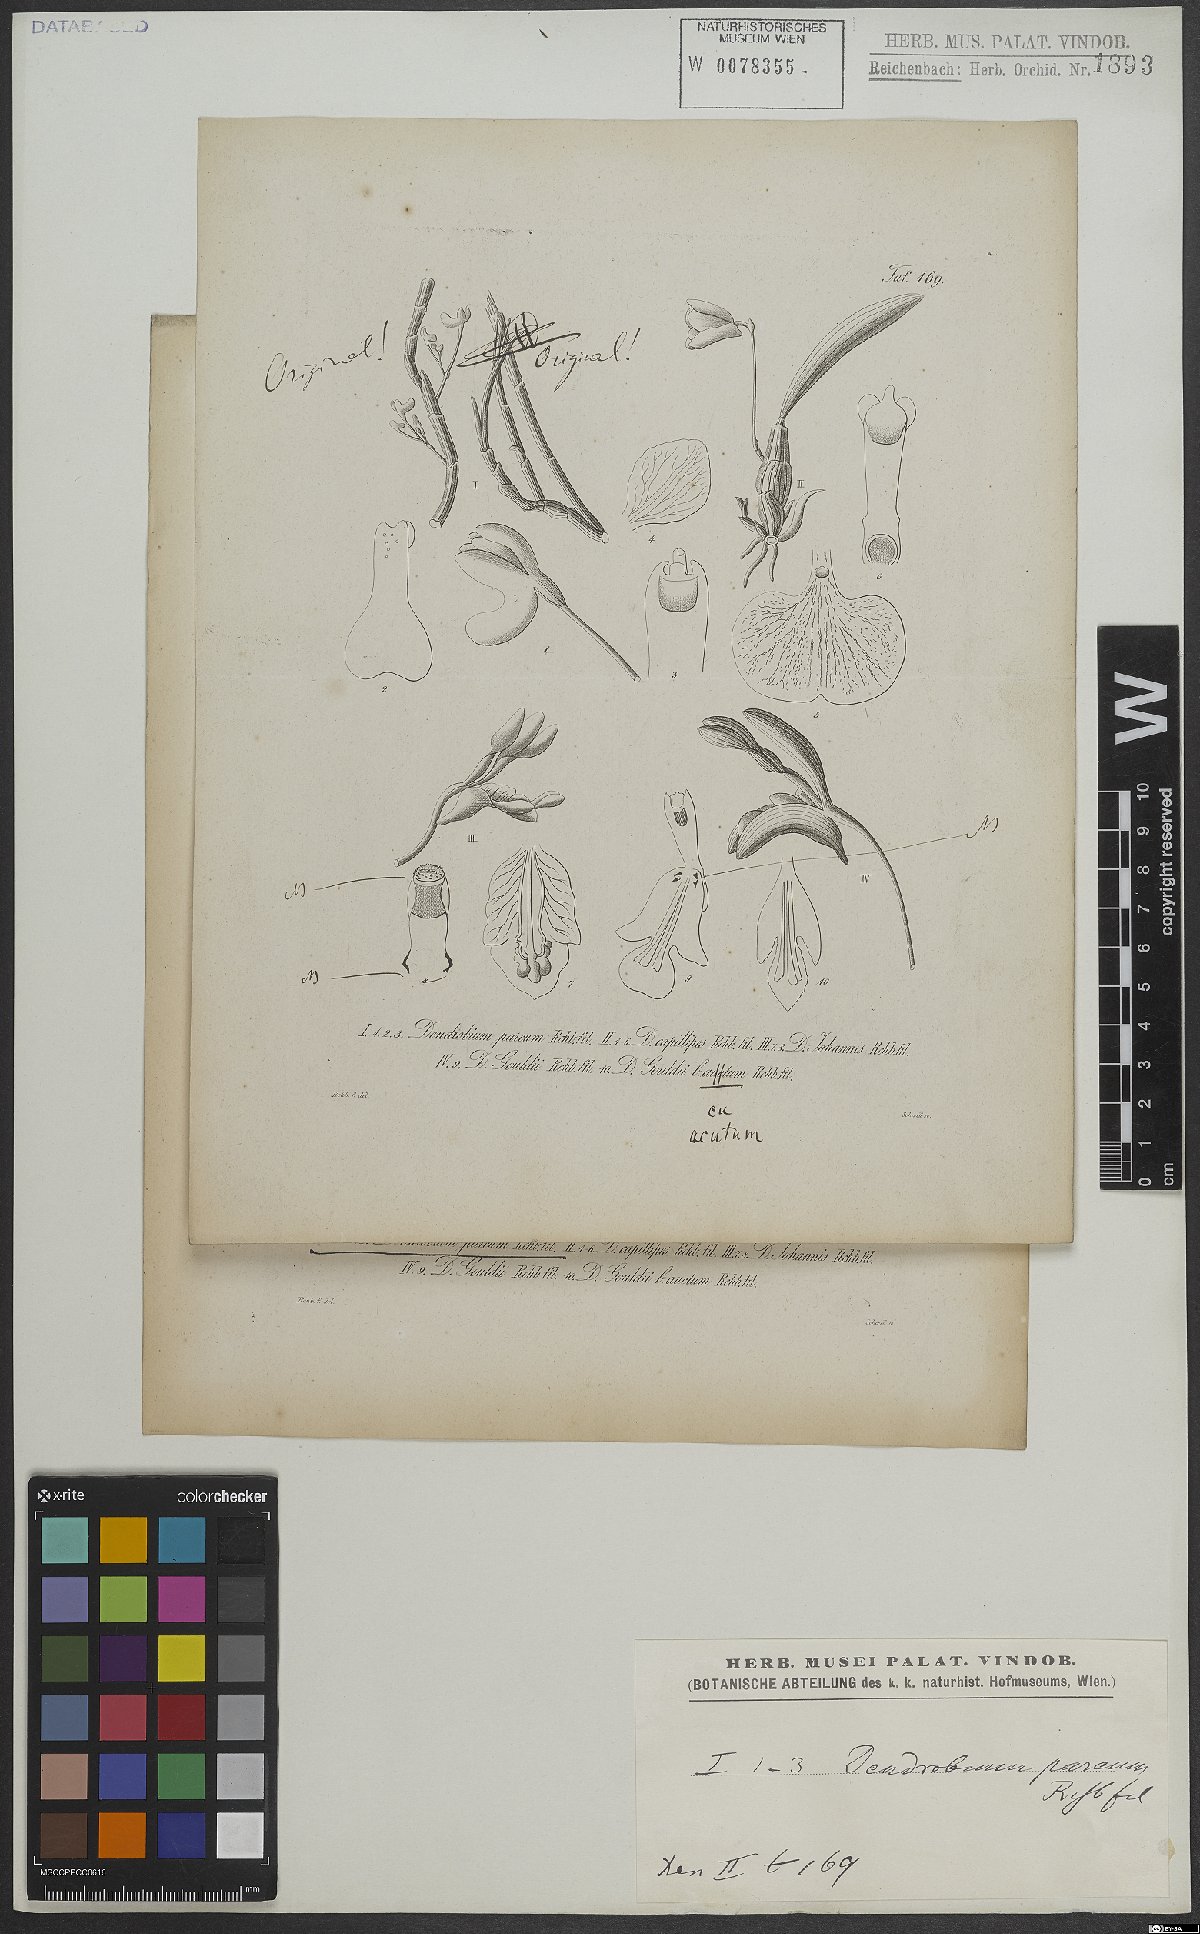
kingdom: Plantae
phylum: Tracheophyta
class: Liliopsida
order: Asparagales
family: Orchidaceae
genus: Dendrobium
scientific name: Dendrobium parcum
